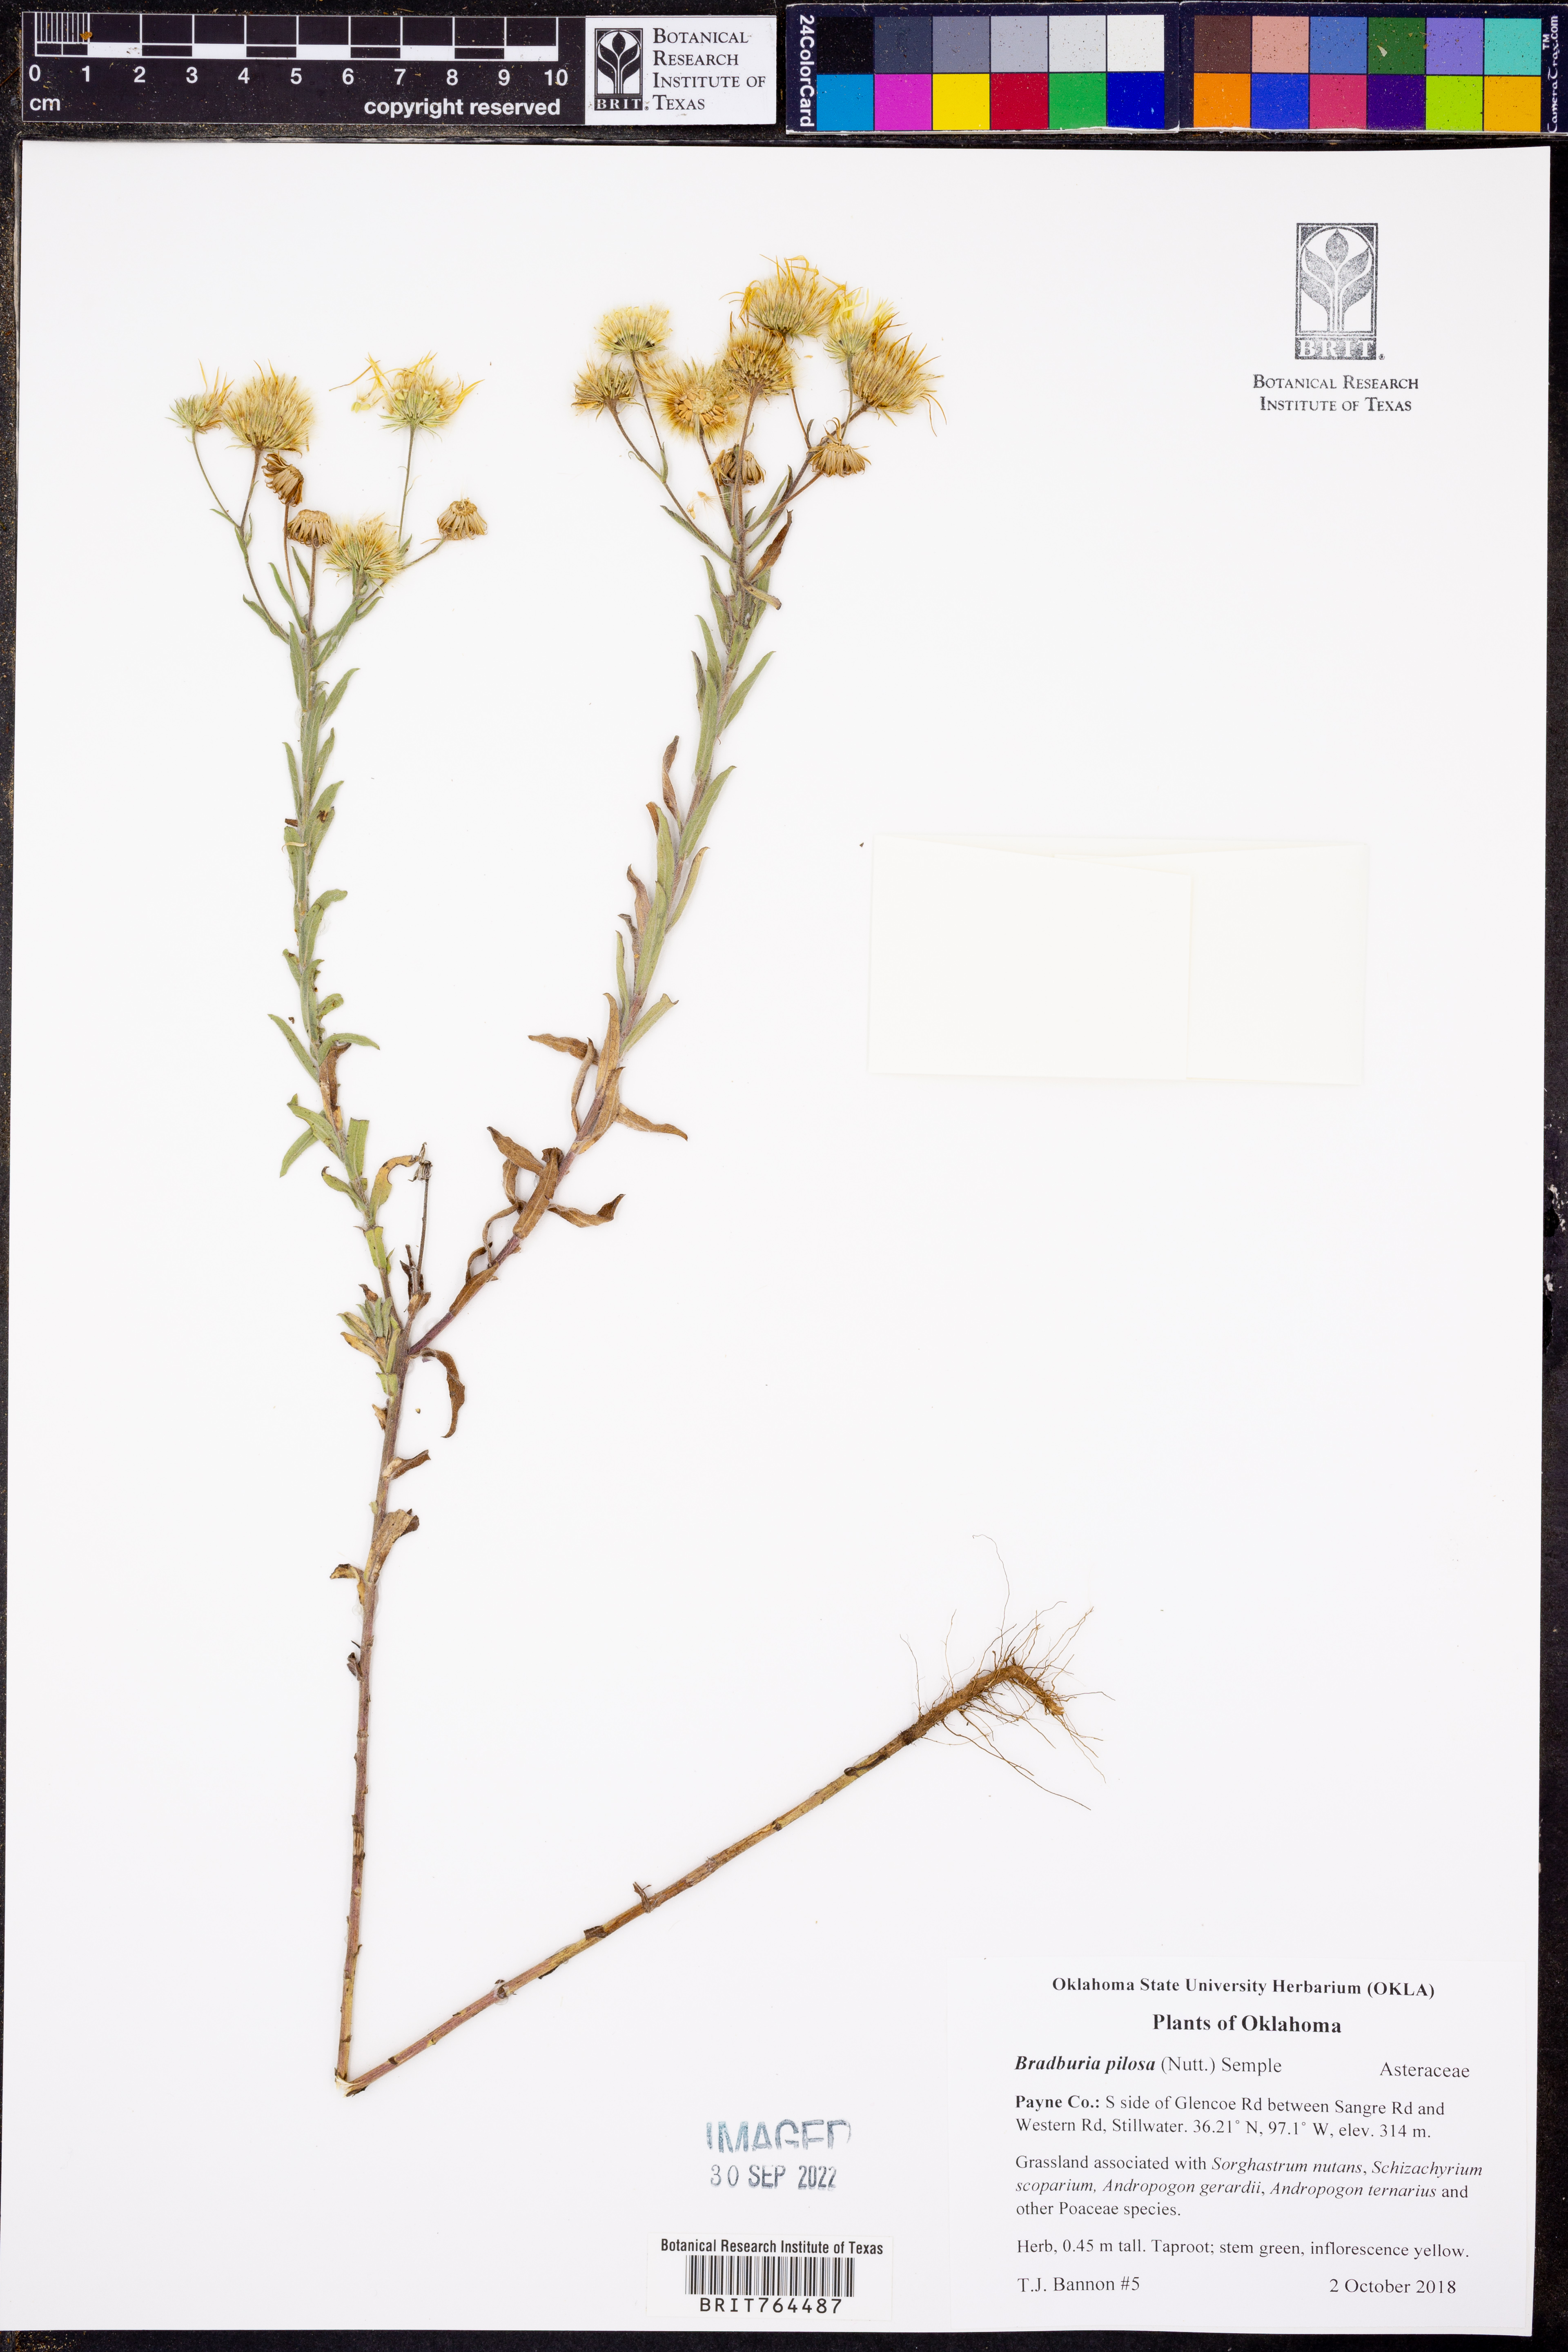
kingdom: Plantae
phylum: Tracheophyta
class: Magnoliopsida
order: Asterales
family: Asteraceae
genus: Bradburia
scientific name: Bradburia pilosa
